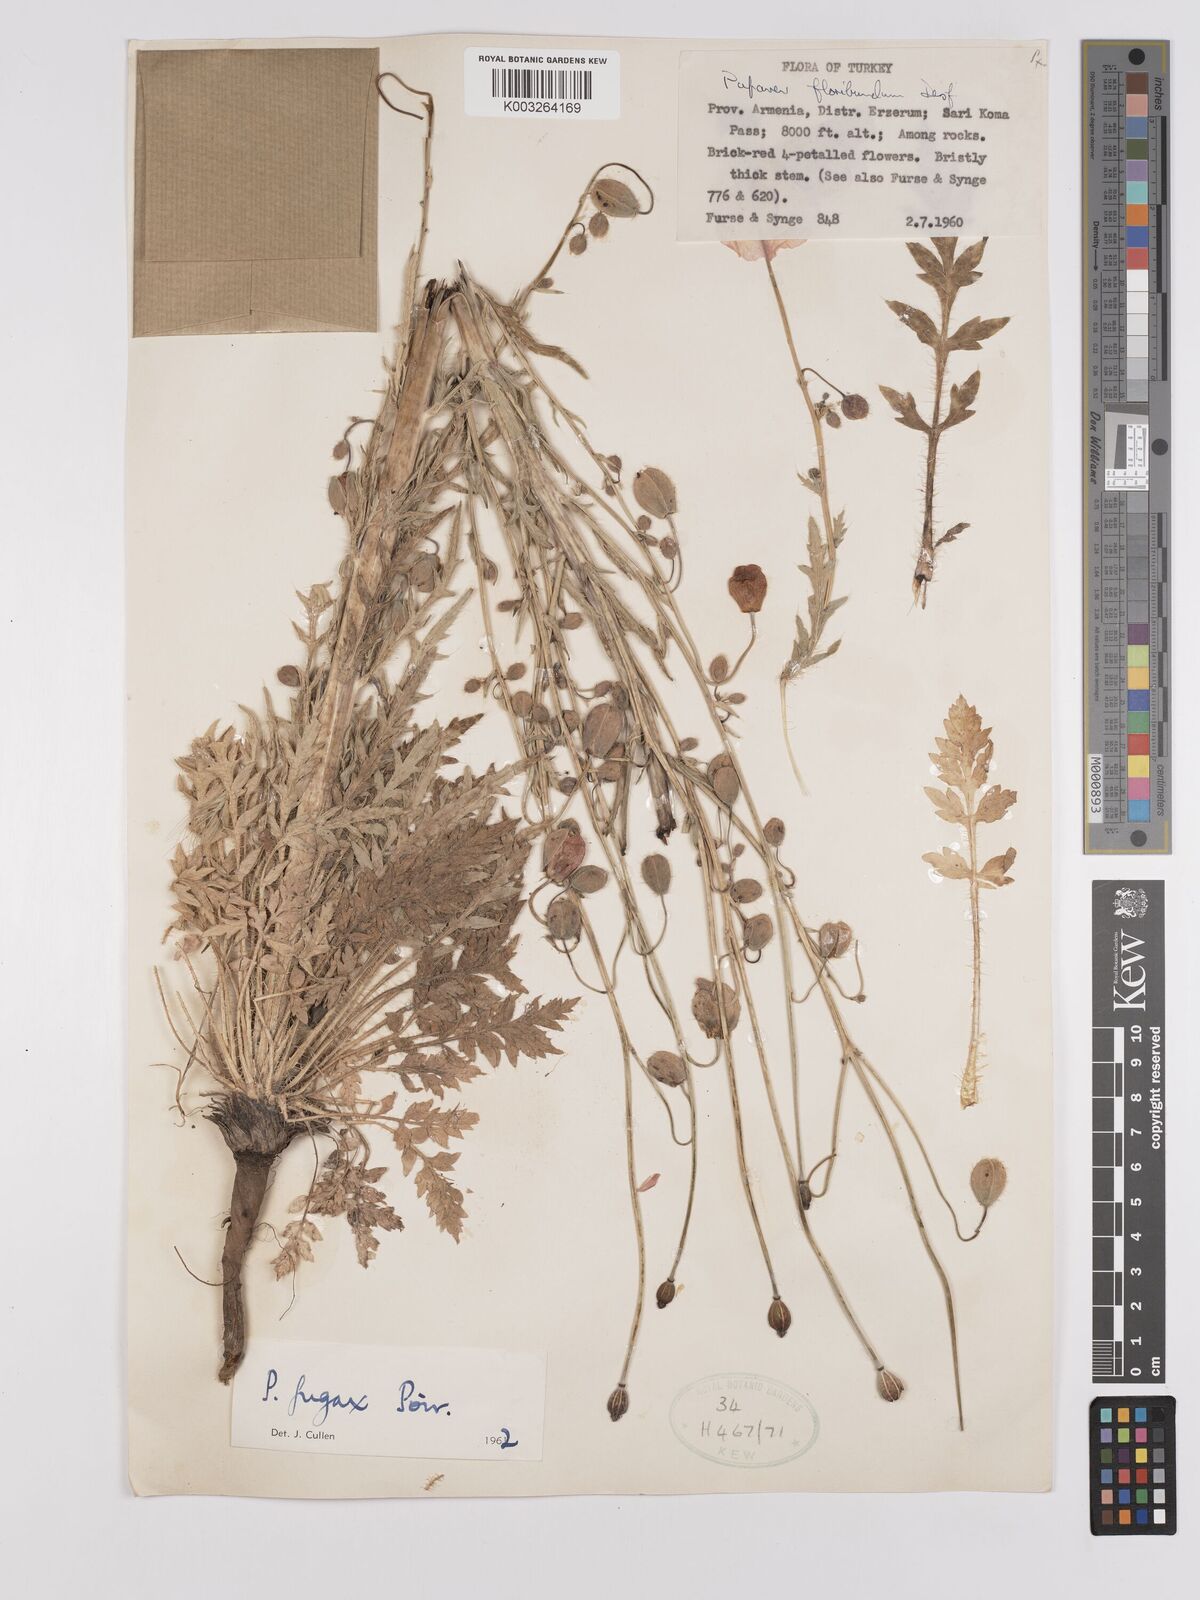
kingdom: Plantae
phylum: Tracheophyta
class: Magnoliopsida
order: Ranunculales
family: Papaveraceae
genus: Papaver
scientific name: Papaver armeniacum
